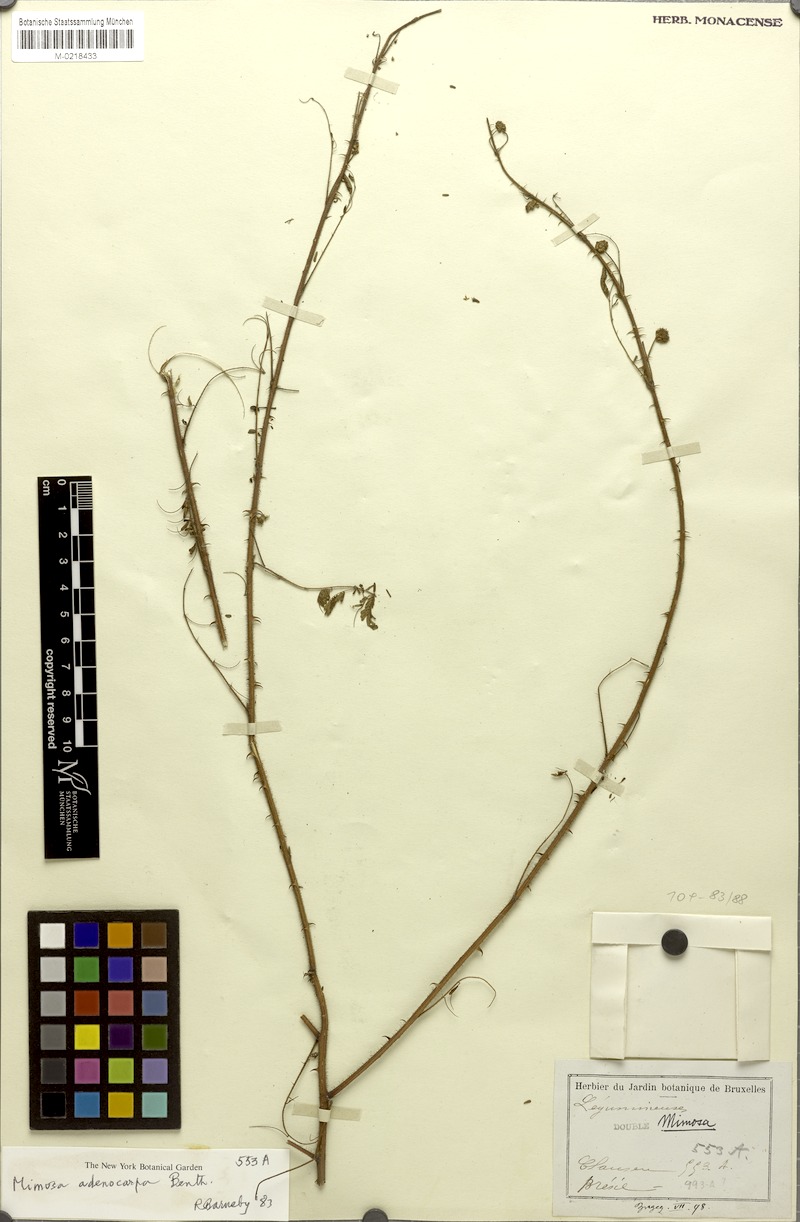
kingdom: Plantae
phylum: Tracheophyta
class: Magnoliopsida
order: Fabales
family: Fabaceae
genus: Mimosa
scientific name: Mimosa adenocarpa
